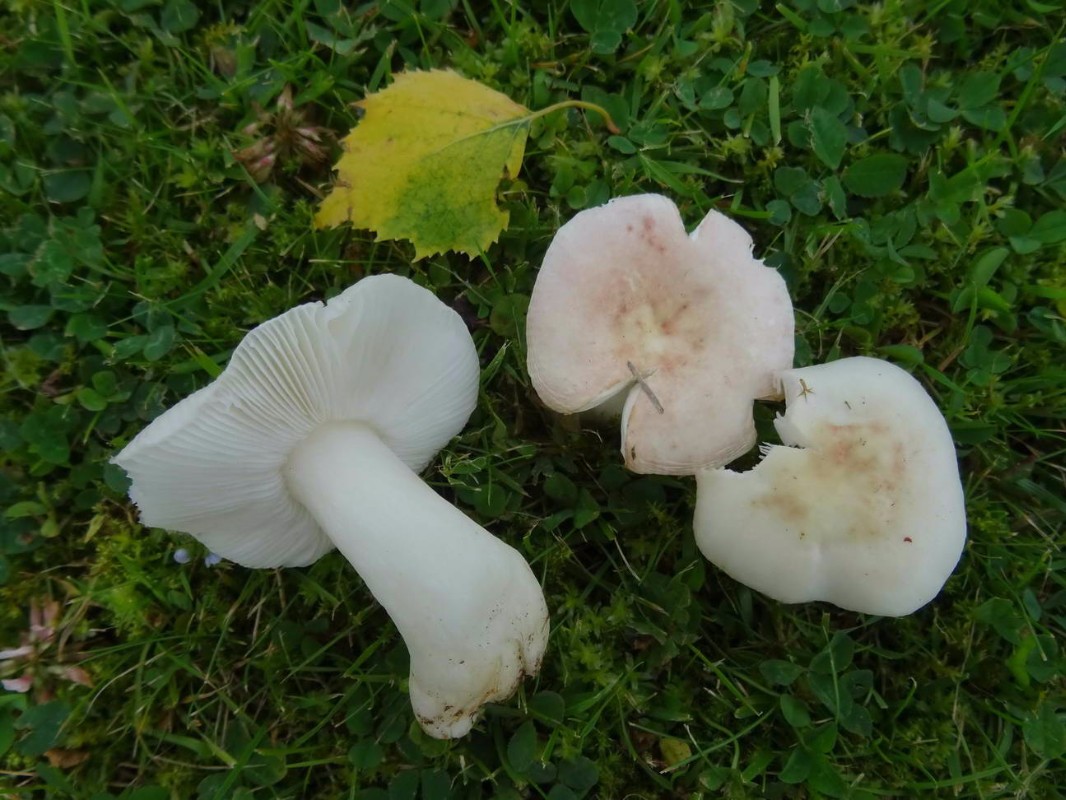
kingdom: Fungi
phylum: Basidiomycota
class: Agaricomycetes
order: Russulales
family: Russulaceae
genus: Russula
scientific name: Russula betularum
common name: bleg gift-skørhat
